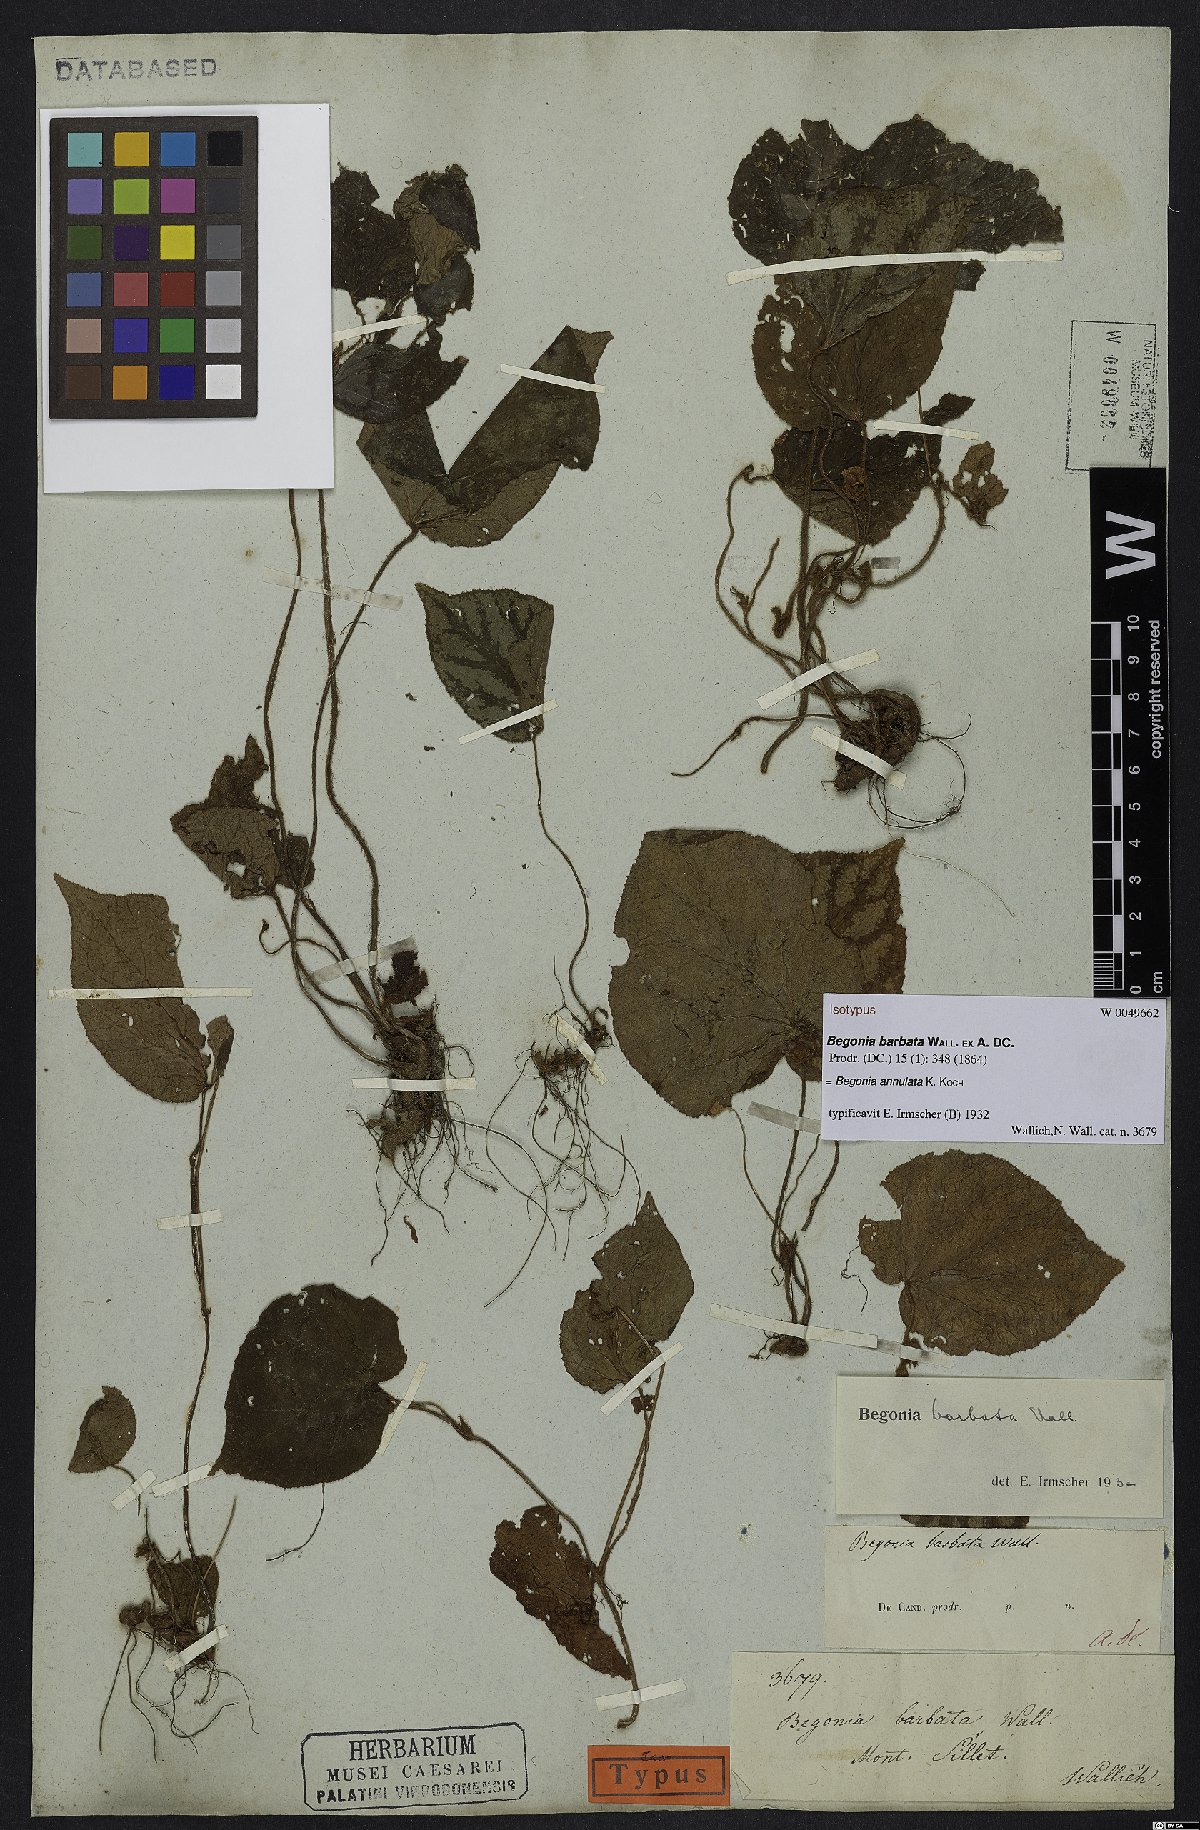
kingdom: Plantae
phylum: Tracheophyta
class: Magnoliopsida
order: Cucurbitales
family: Begoniaceae
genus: Begonia
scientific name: Begonia annulata
